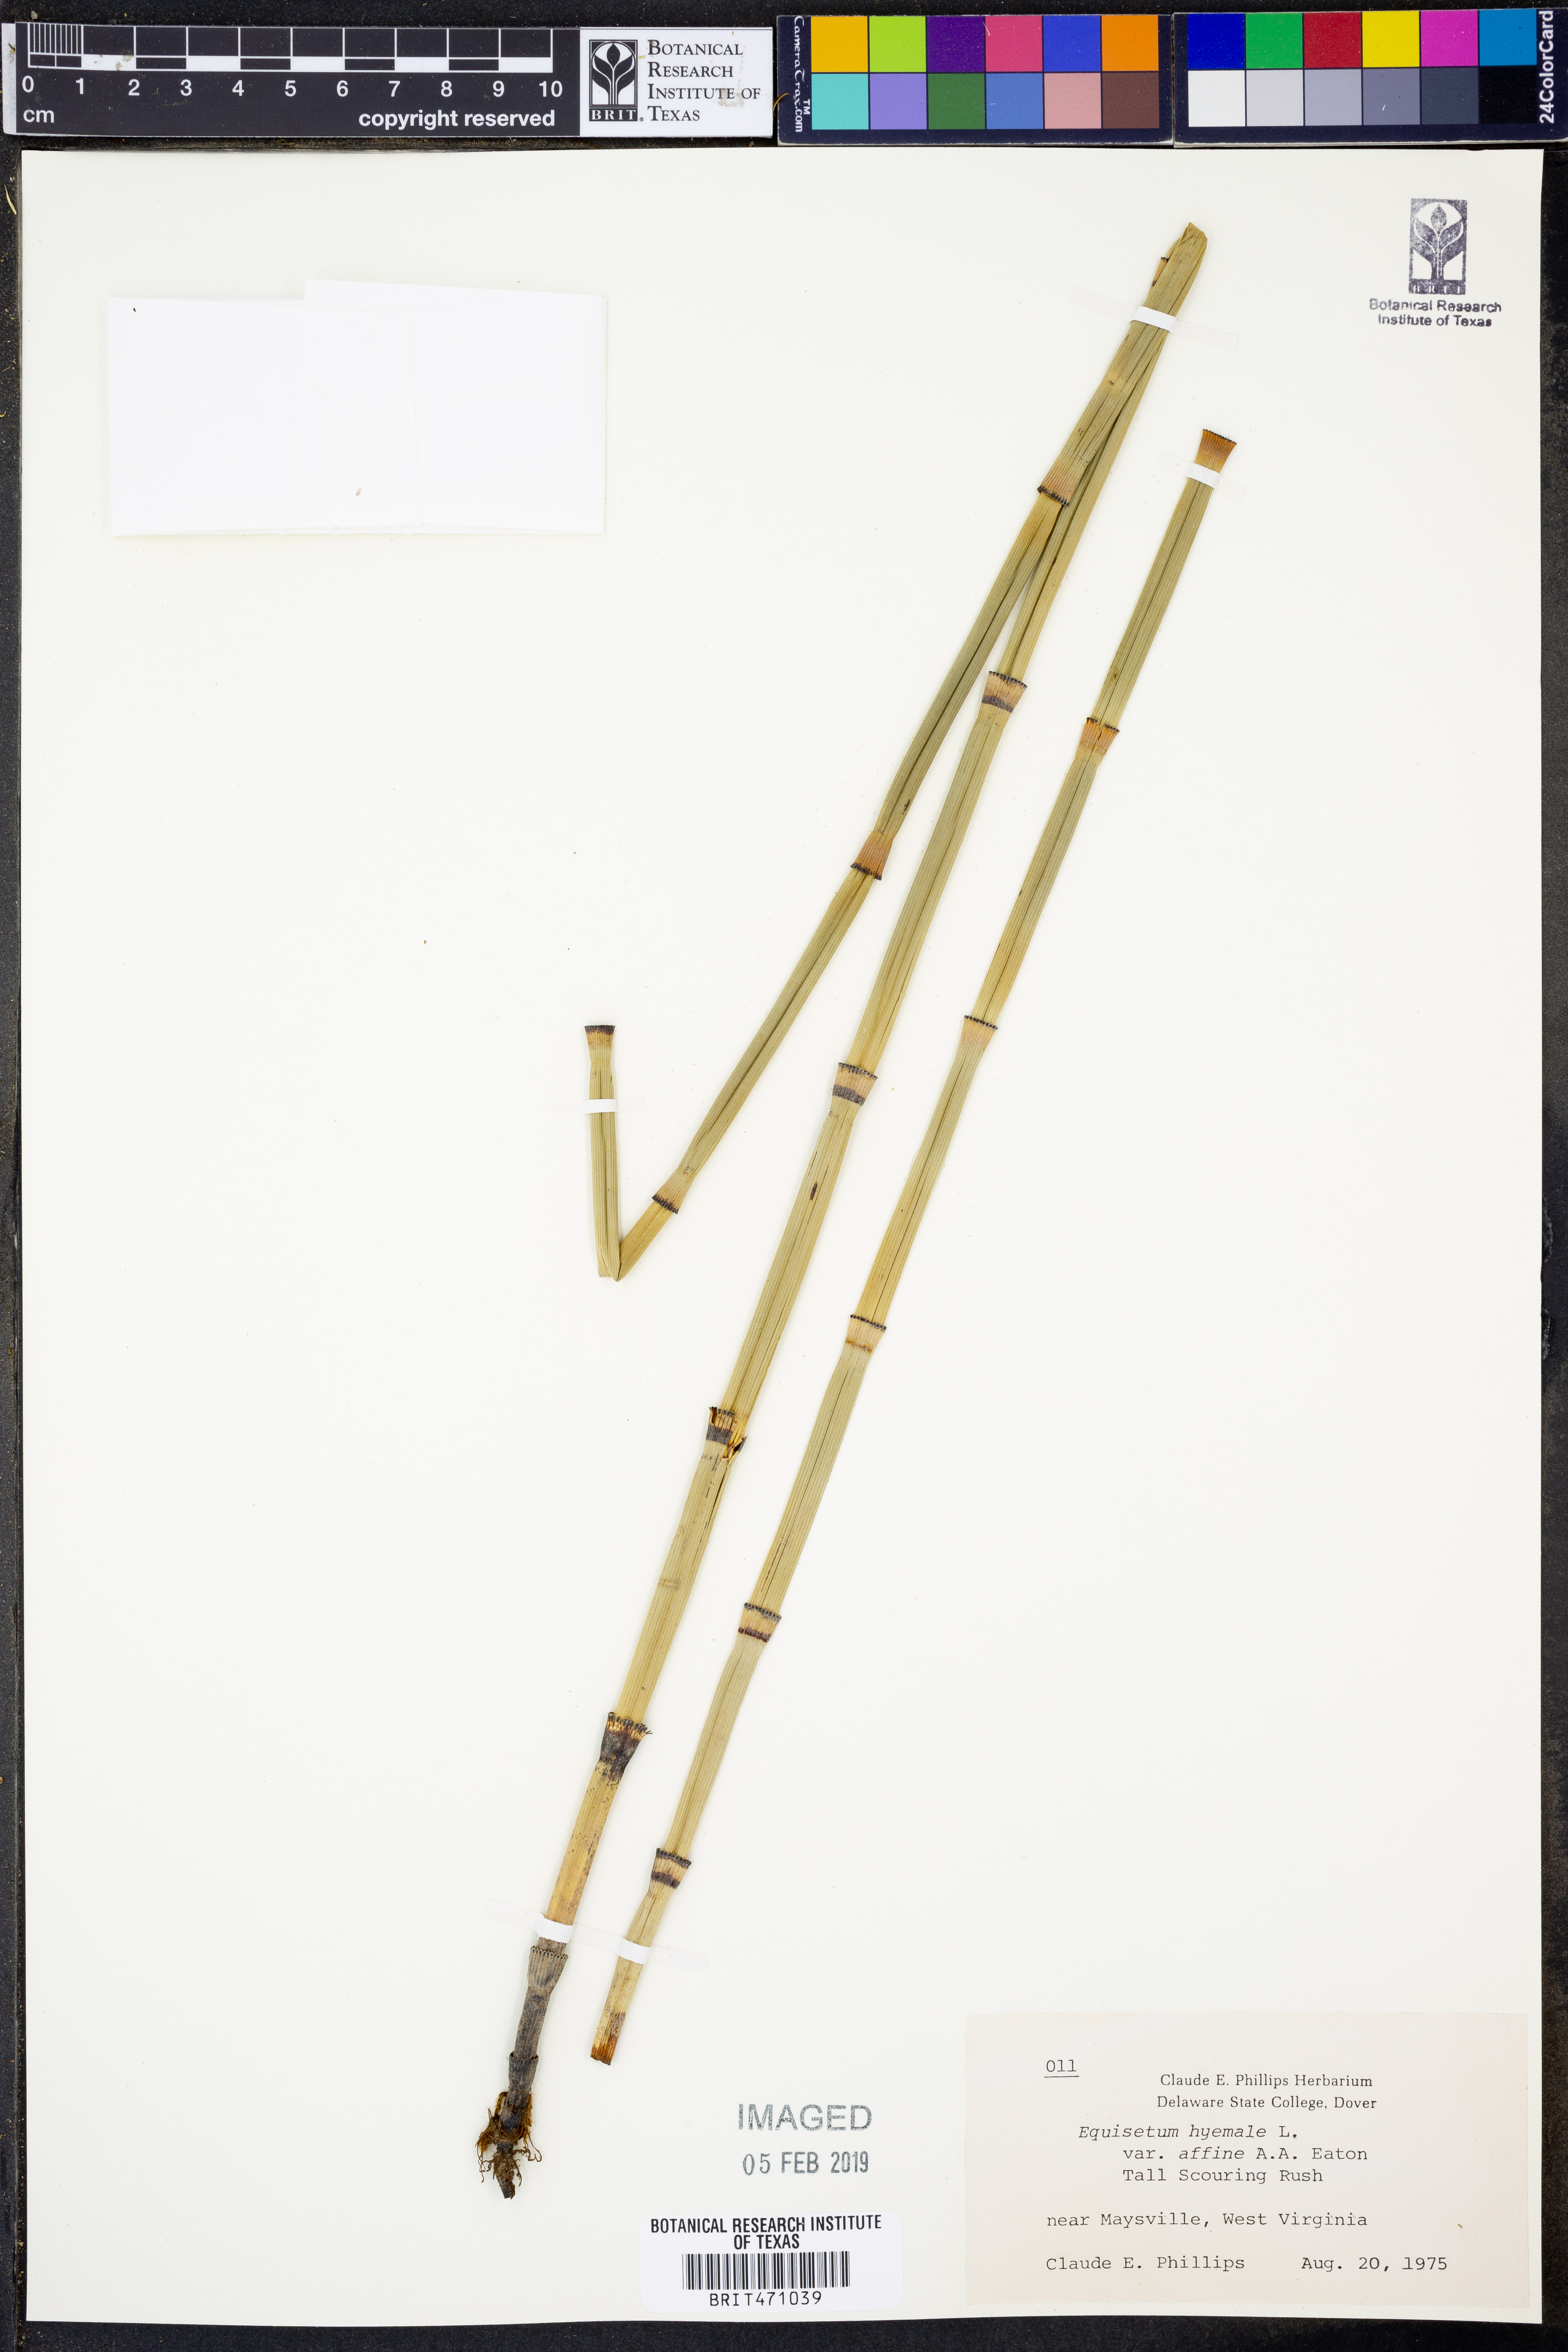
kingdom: Plantae
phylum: Tracheophyta
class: Polypodiopsida
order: Equisetales
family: Equisetaceae
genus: Equisetum
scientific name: Equisetum praealtum
